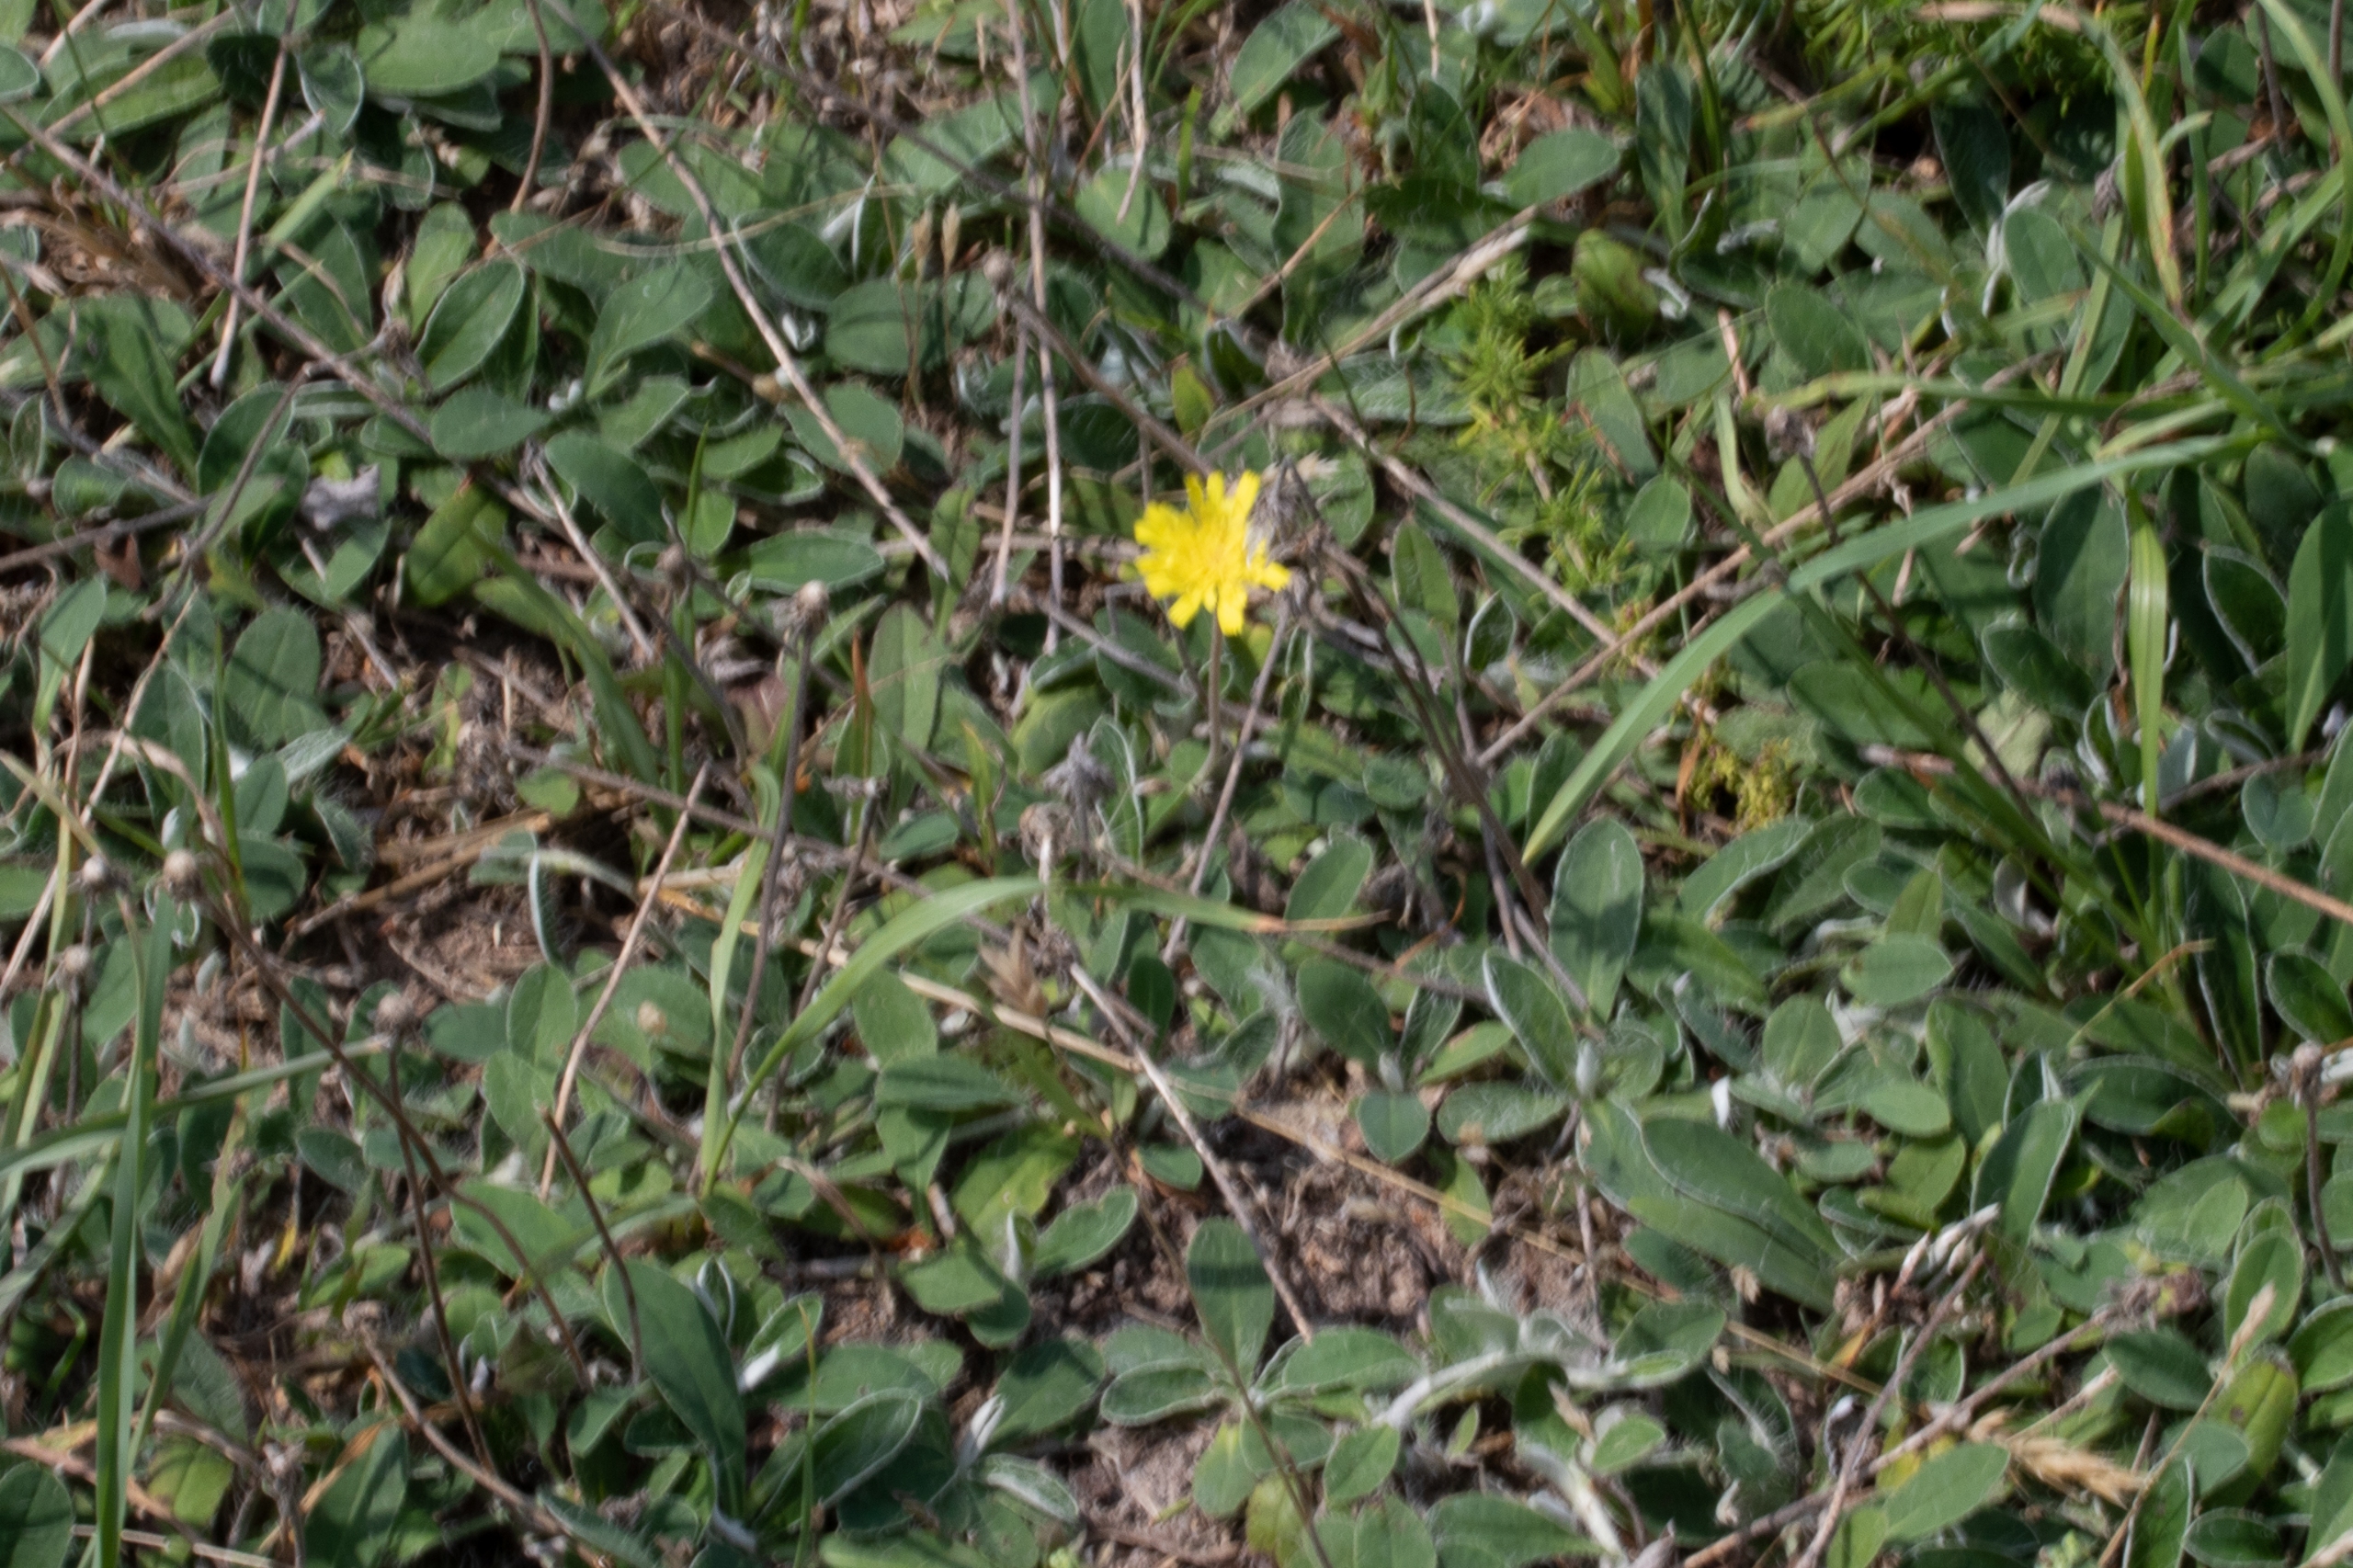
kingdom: Plantae
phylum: Tracheophyta
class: Magnoliopsida
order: Asterales
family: Asteraceae
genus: Pilosella
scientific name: Pilosella officinarum
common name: Håret høgeurt
